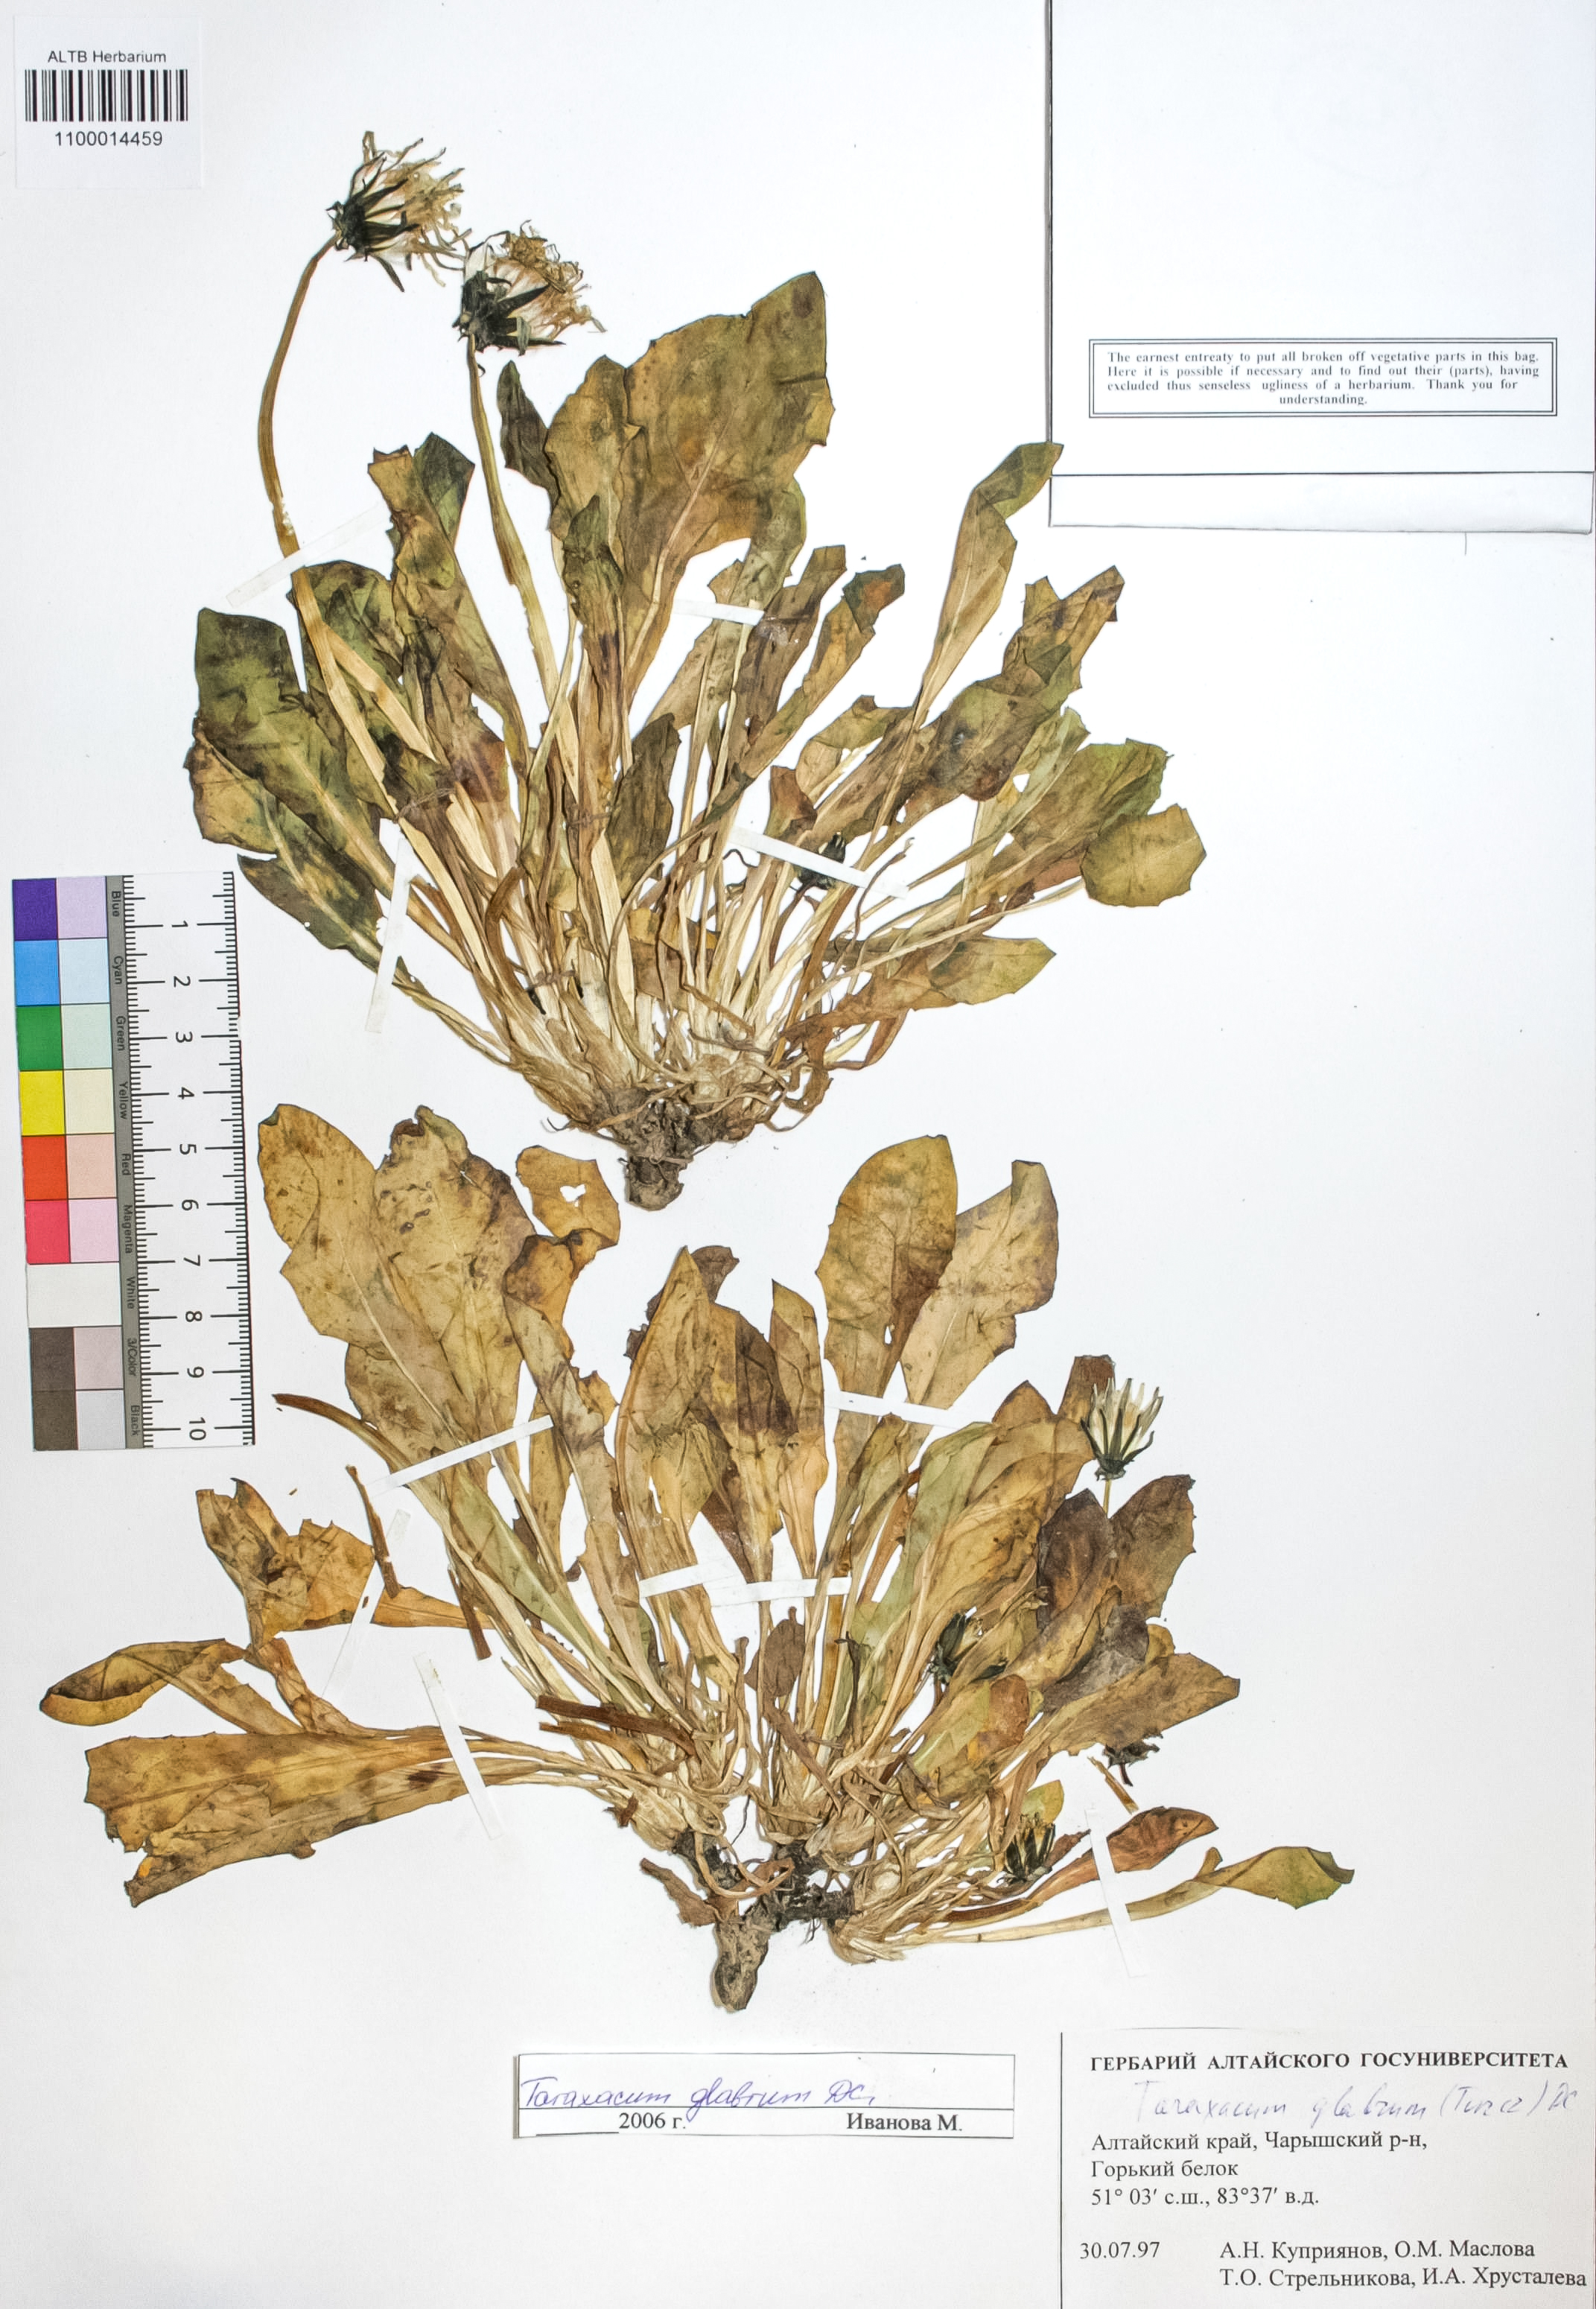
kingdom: Plantae
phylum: Tracheophyta
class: Magnoliopsida
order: Asterales
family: Asteraceae
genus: Taraxacum
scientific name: Taraxacum glabrum
